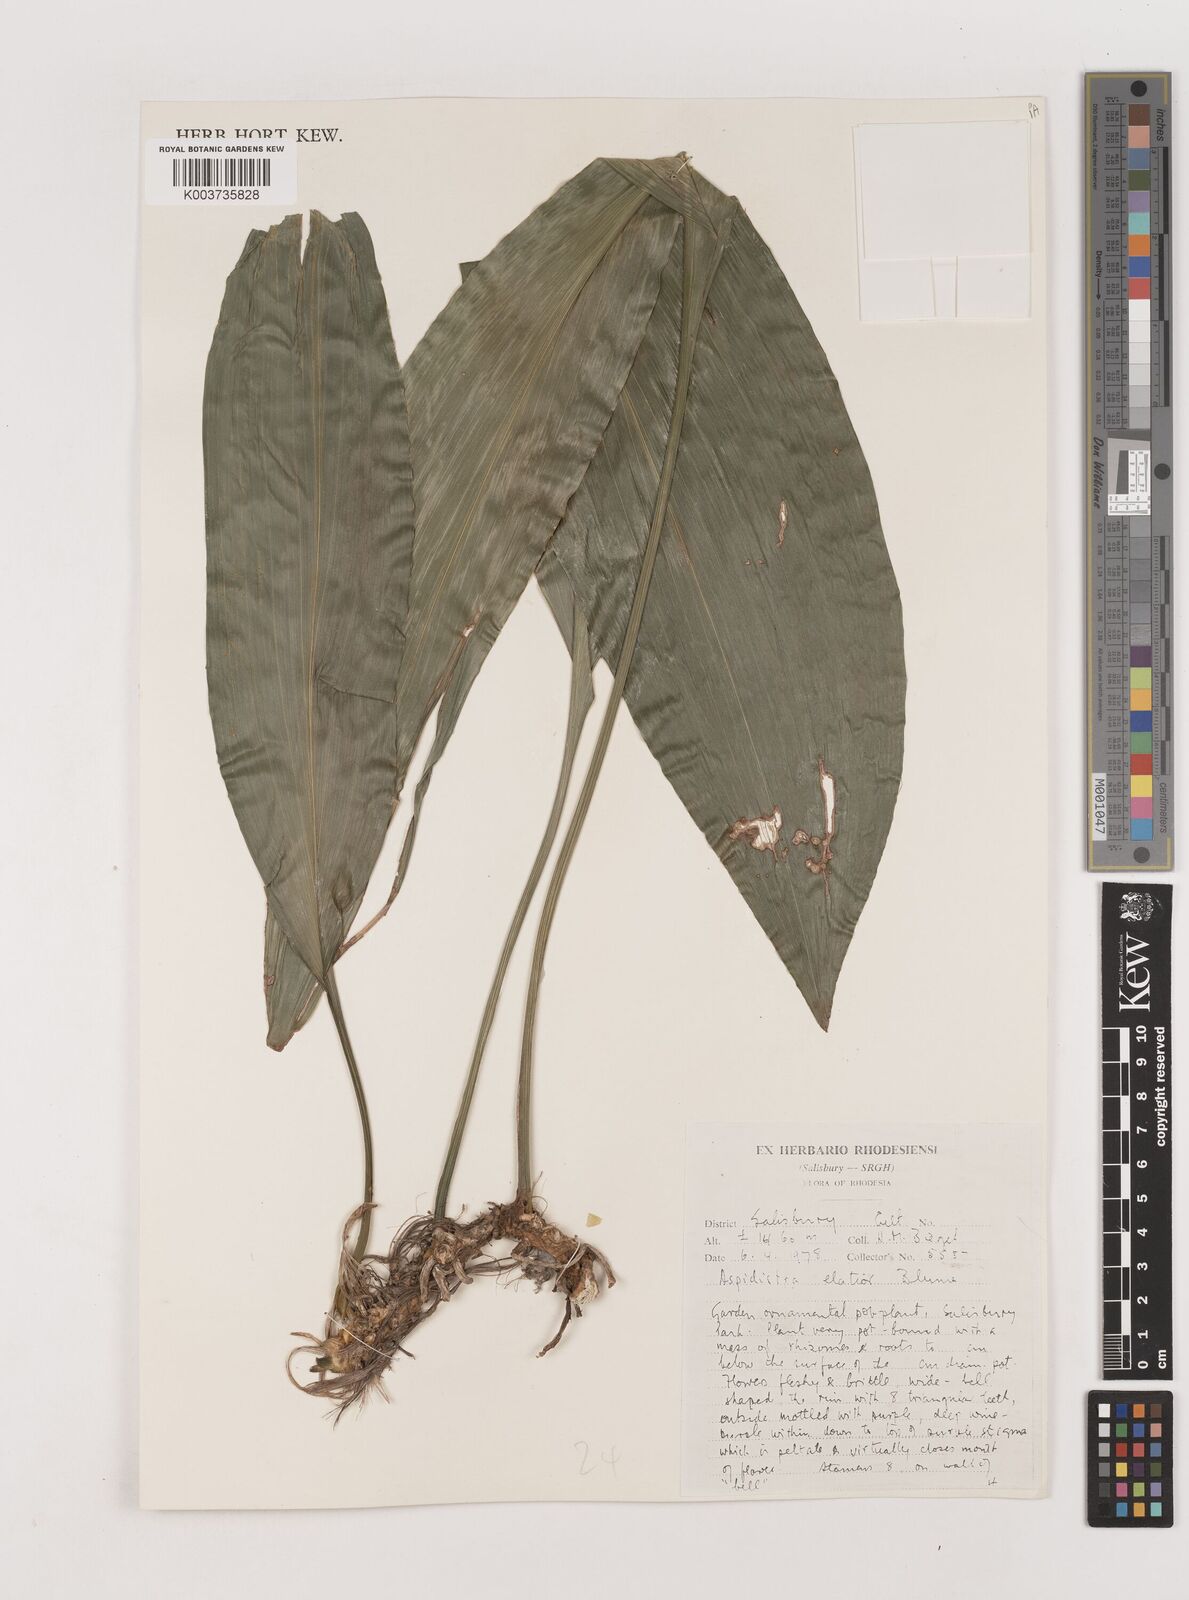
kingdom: Plantae
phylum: Tracheophyta
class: Liliopsida
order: Asparagales
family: Asparagaceae
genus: Aspidistra
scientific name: Aspidistra elatior
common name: Cast-iron-plant
